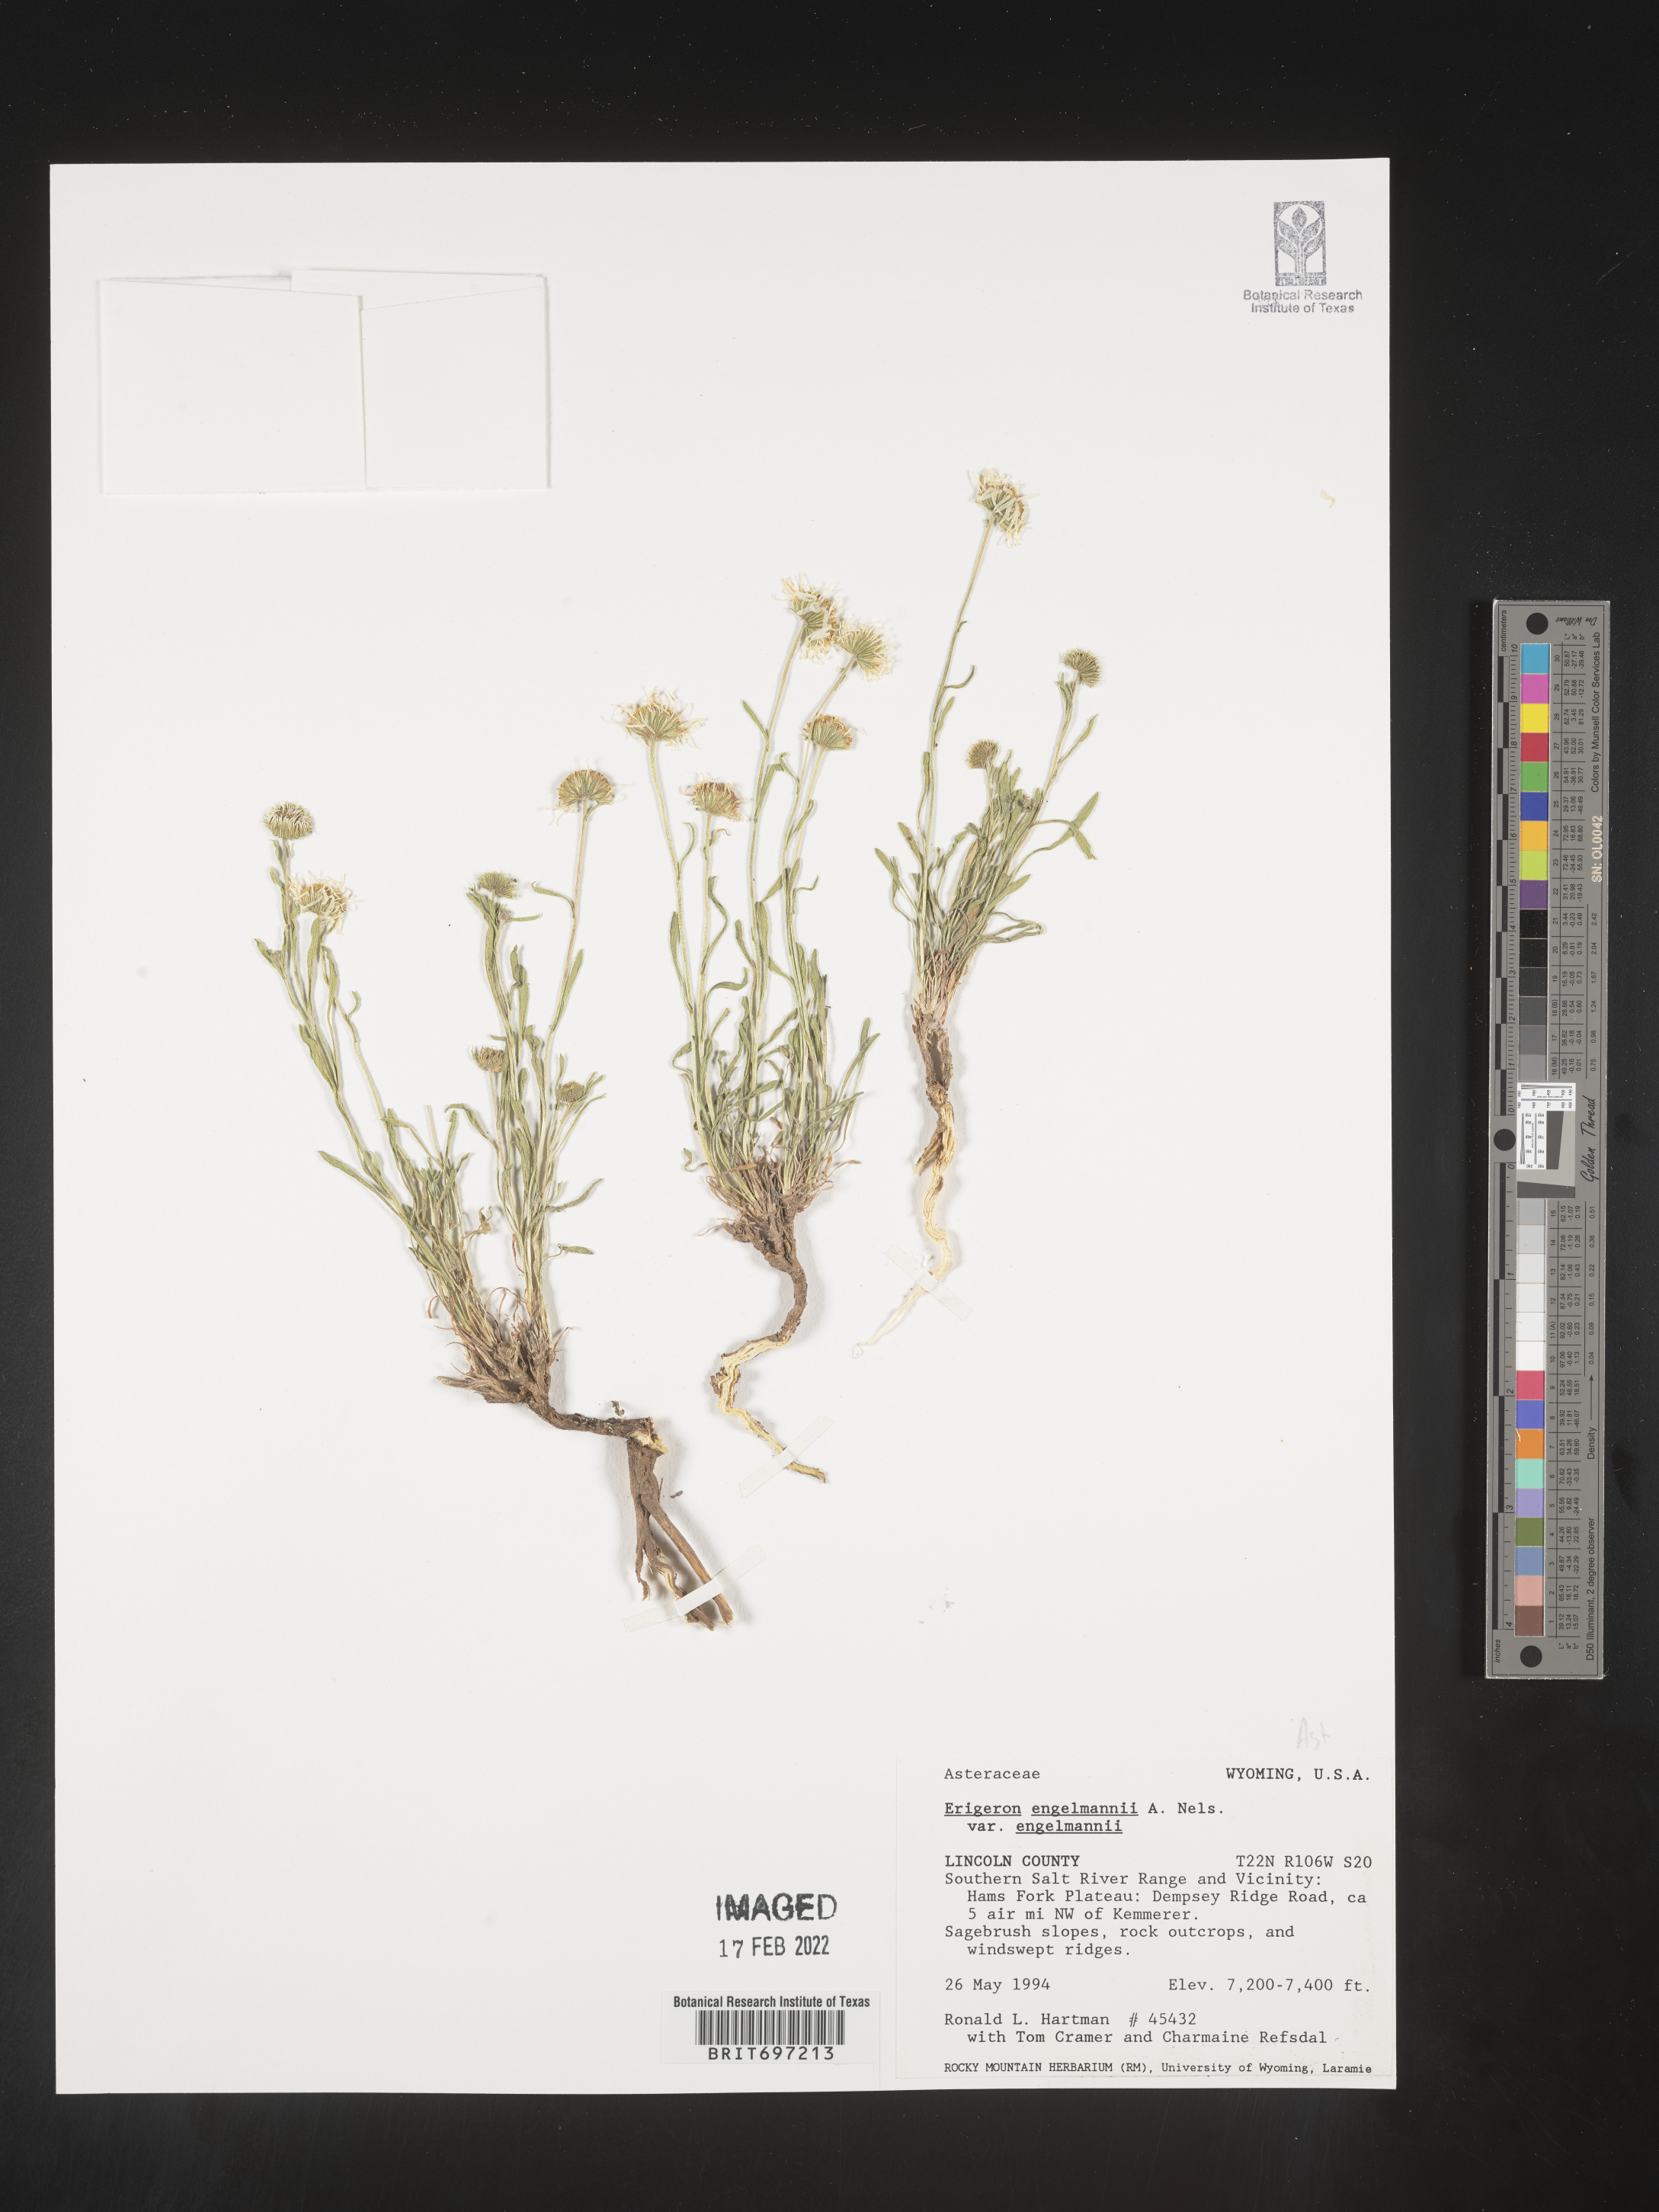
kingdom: Plantae
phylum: Tracheophyta
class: Magnoliopsida
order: Asterales
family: Asteraceae
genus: Erigeron
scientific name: Erigeron engelmannii
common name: Engelmann's fleabane
